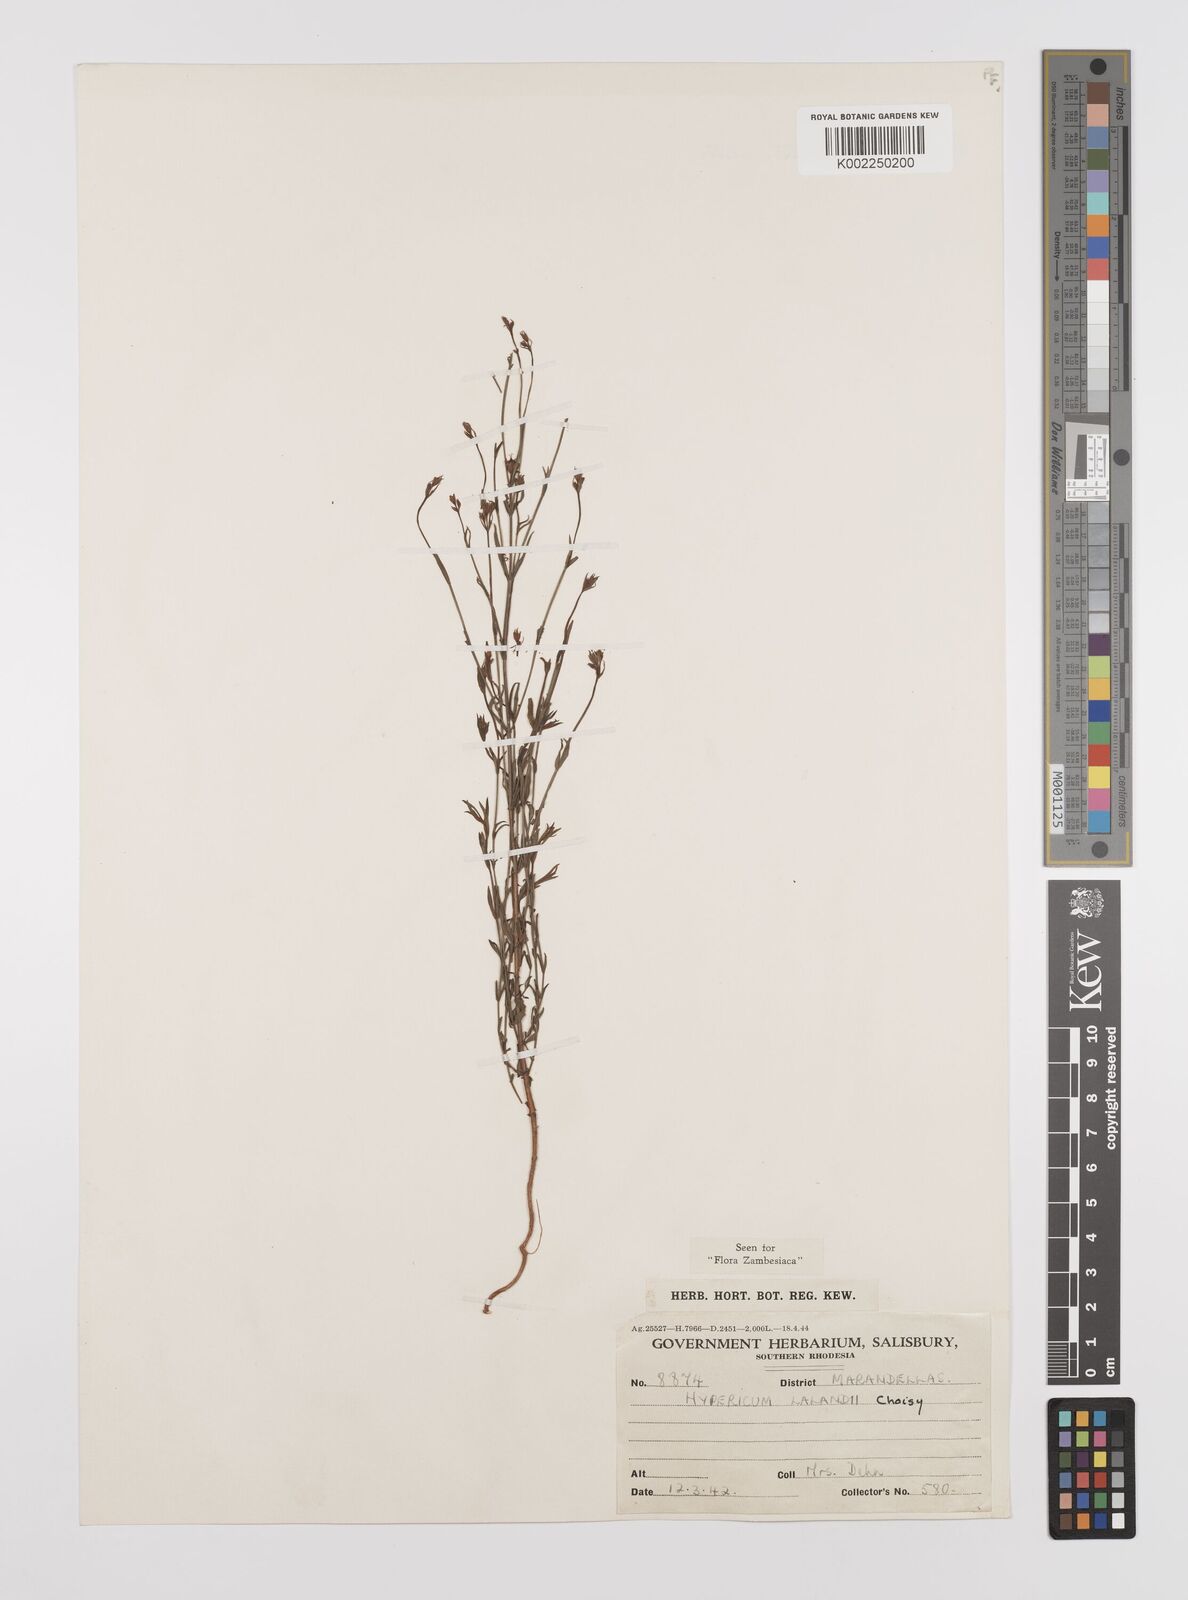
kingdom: Plantae
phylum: Tracheophyta
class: Magnoliopsida
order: Malpighiales
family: Hypericaceae
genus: Hypericum
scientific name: Hypericum lalandii
